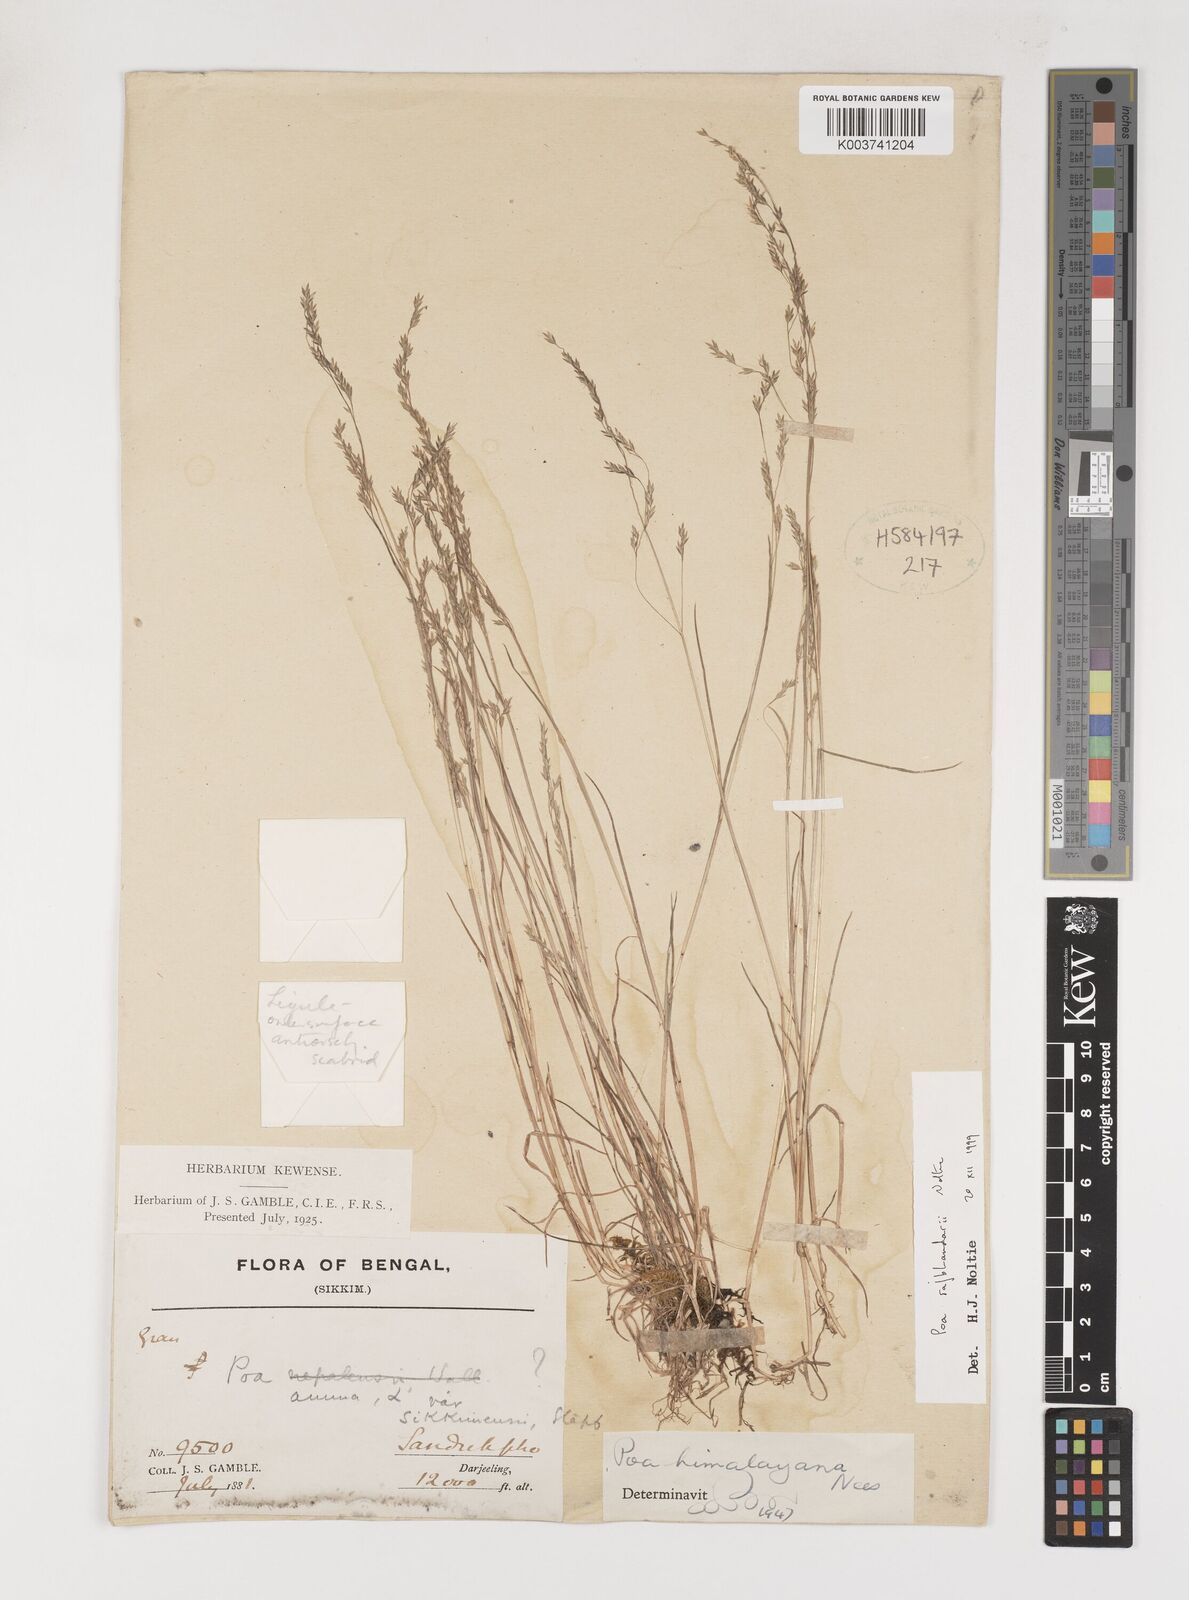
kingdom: Plantae
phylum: Tracheophyta
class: Liliopsida
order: Poales
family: Poaceae
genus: Poa
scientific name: Poa rajbhandarii
